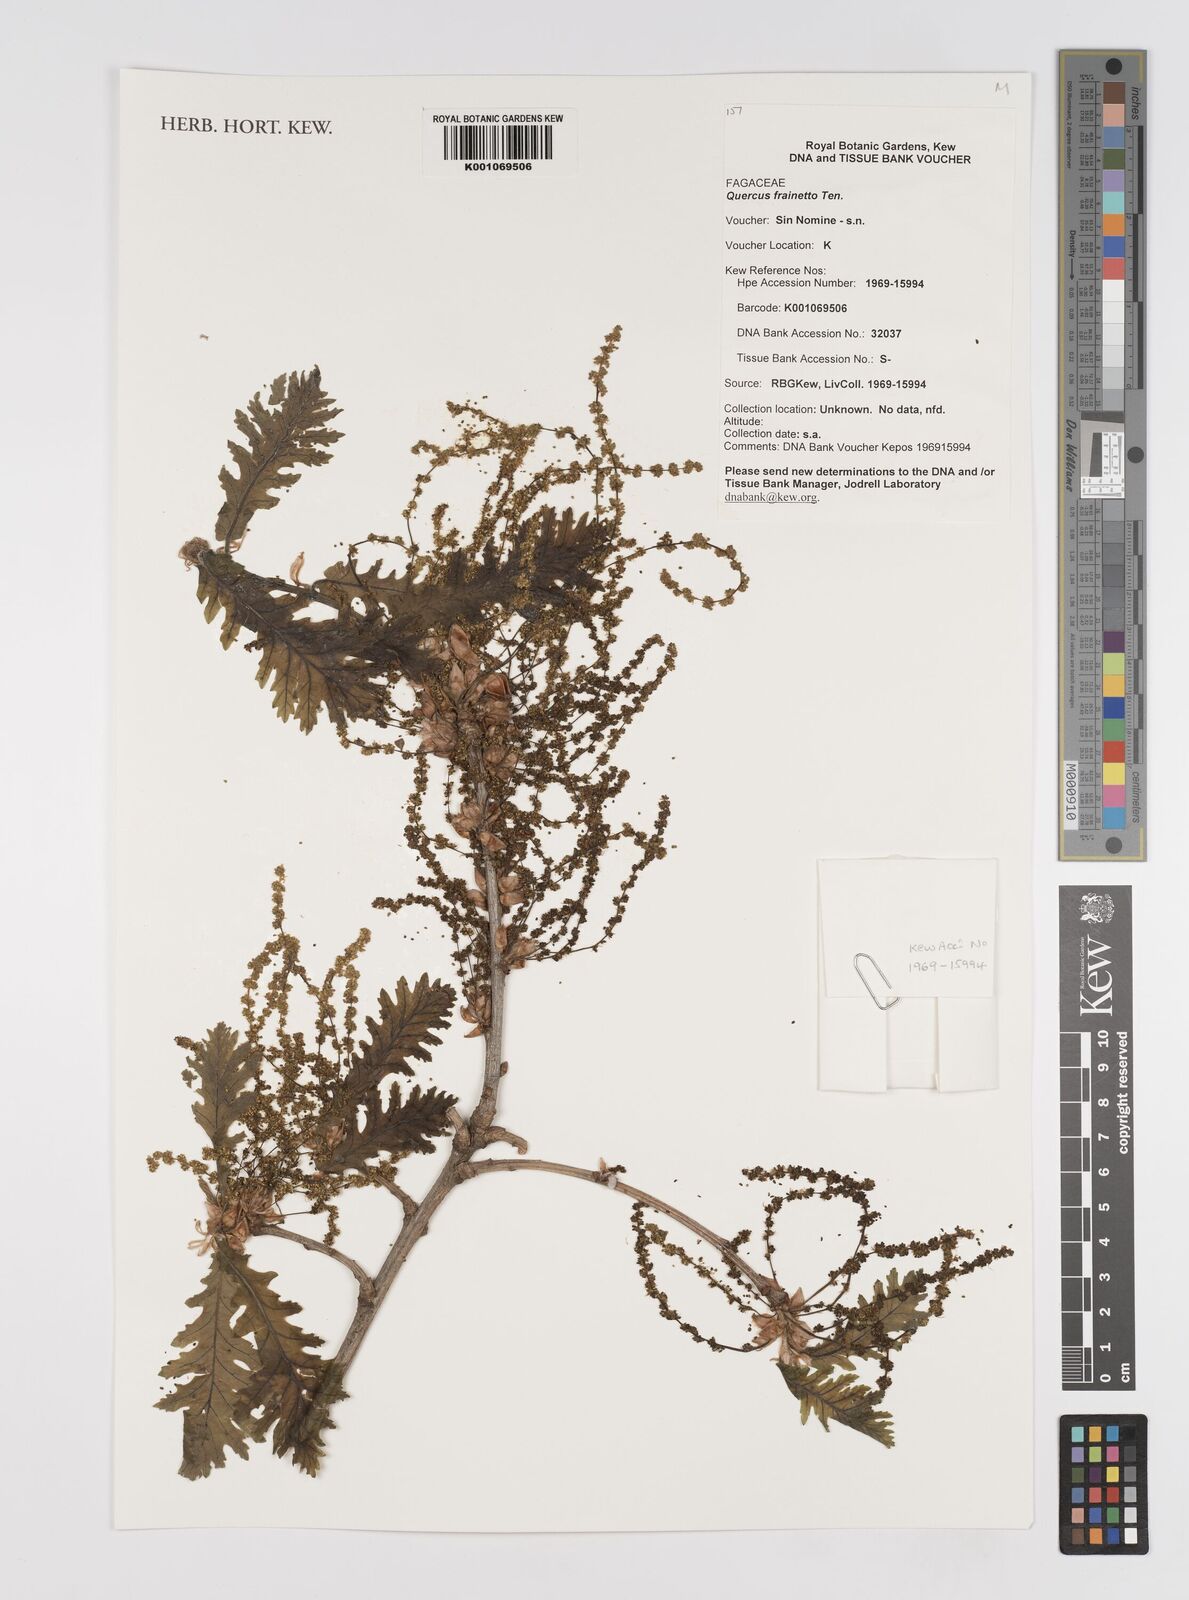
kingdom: Plantae
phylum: Tracheophyta
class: Magnoliopsida
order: Fagales
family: Fagaceae
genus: Quercus
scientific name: Quercus conferta
